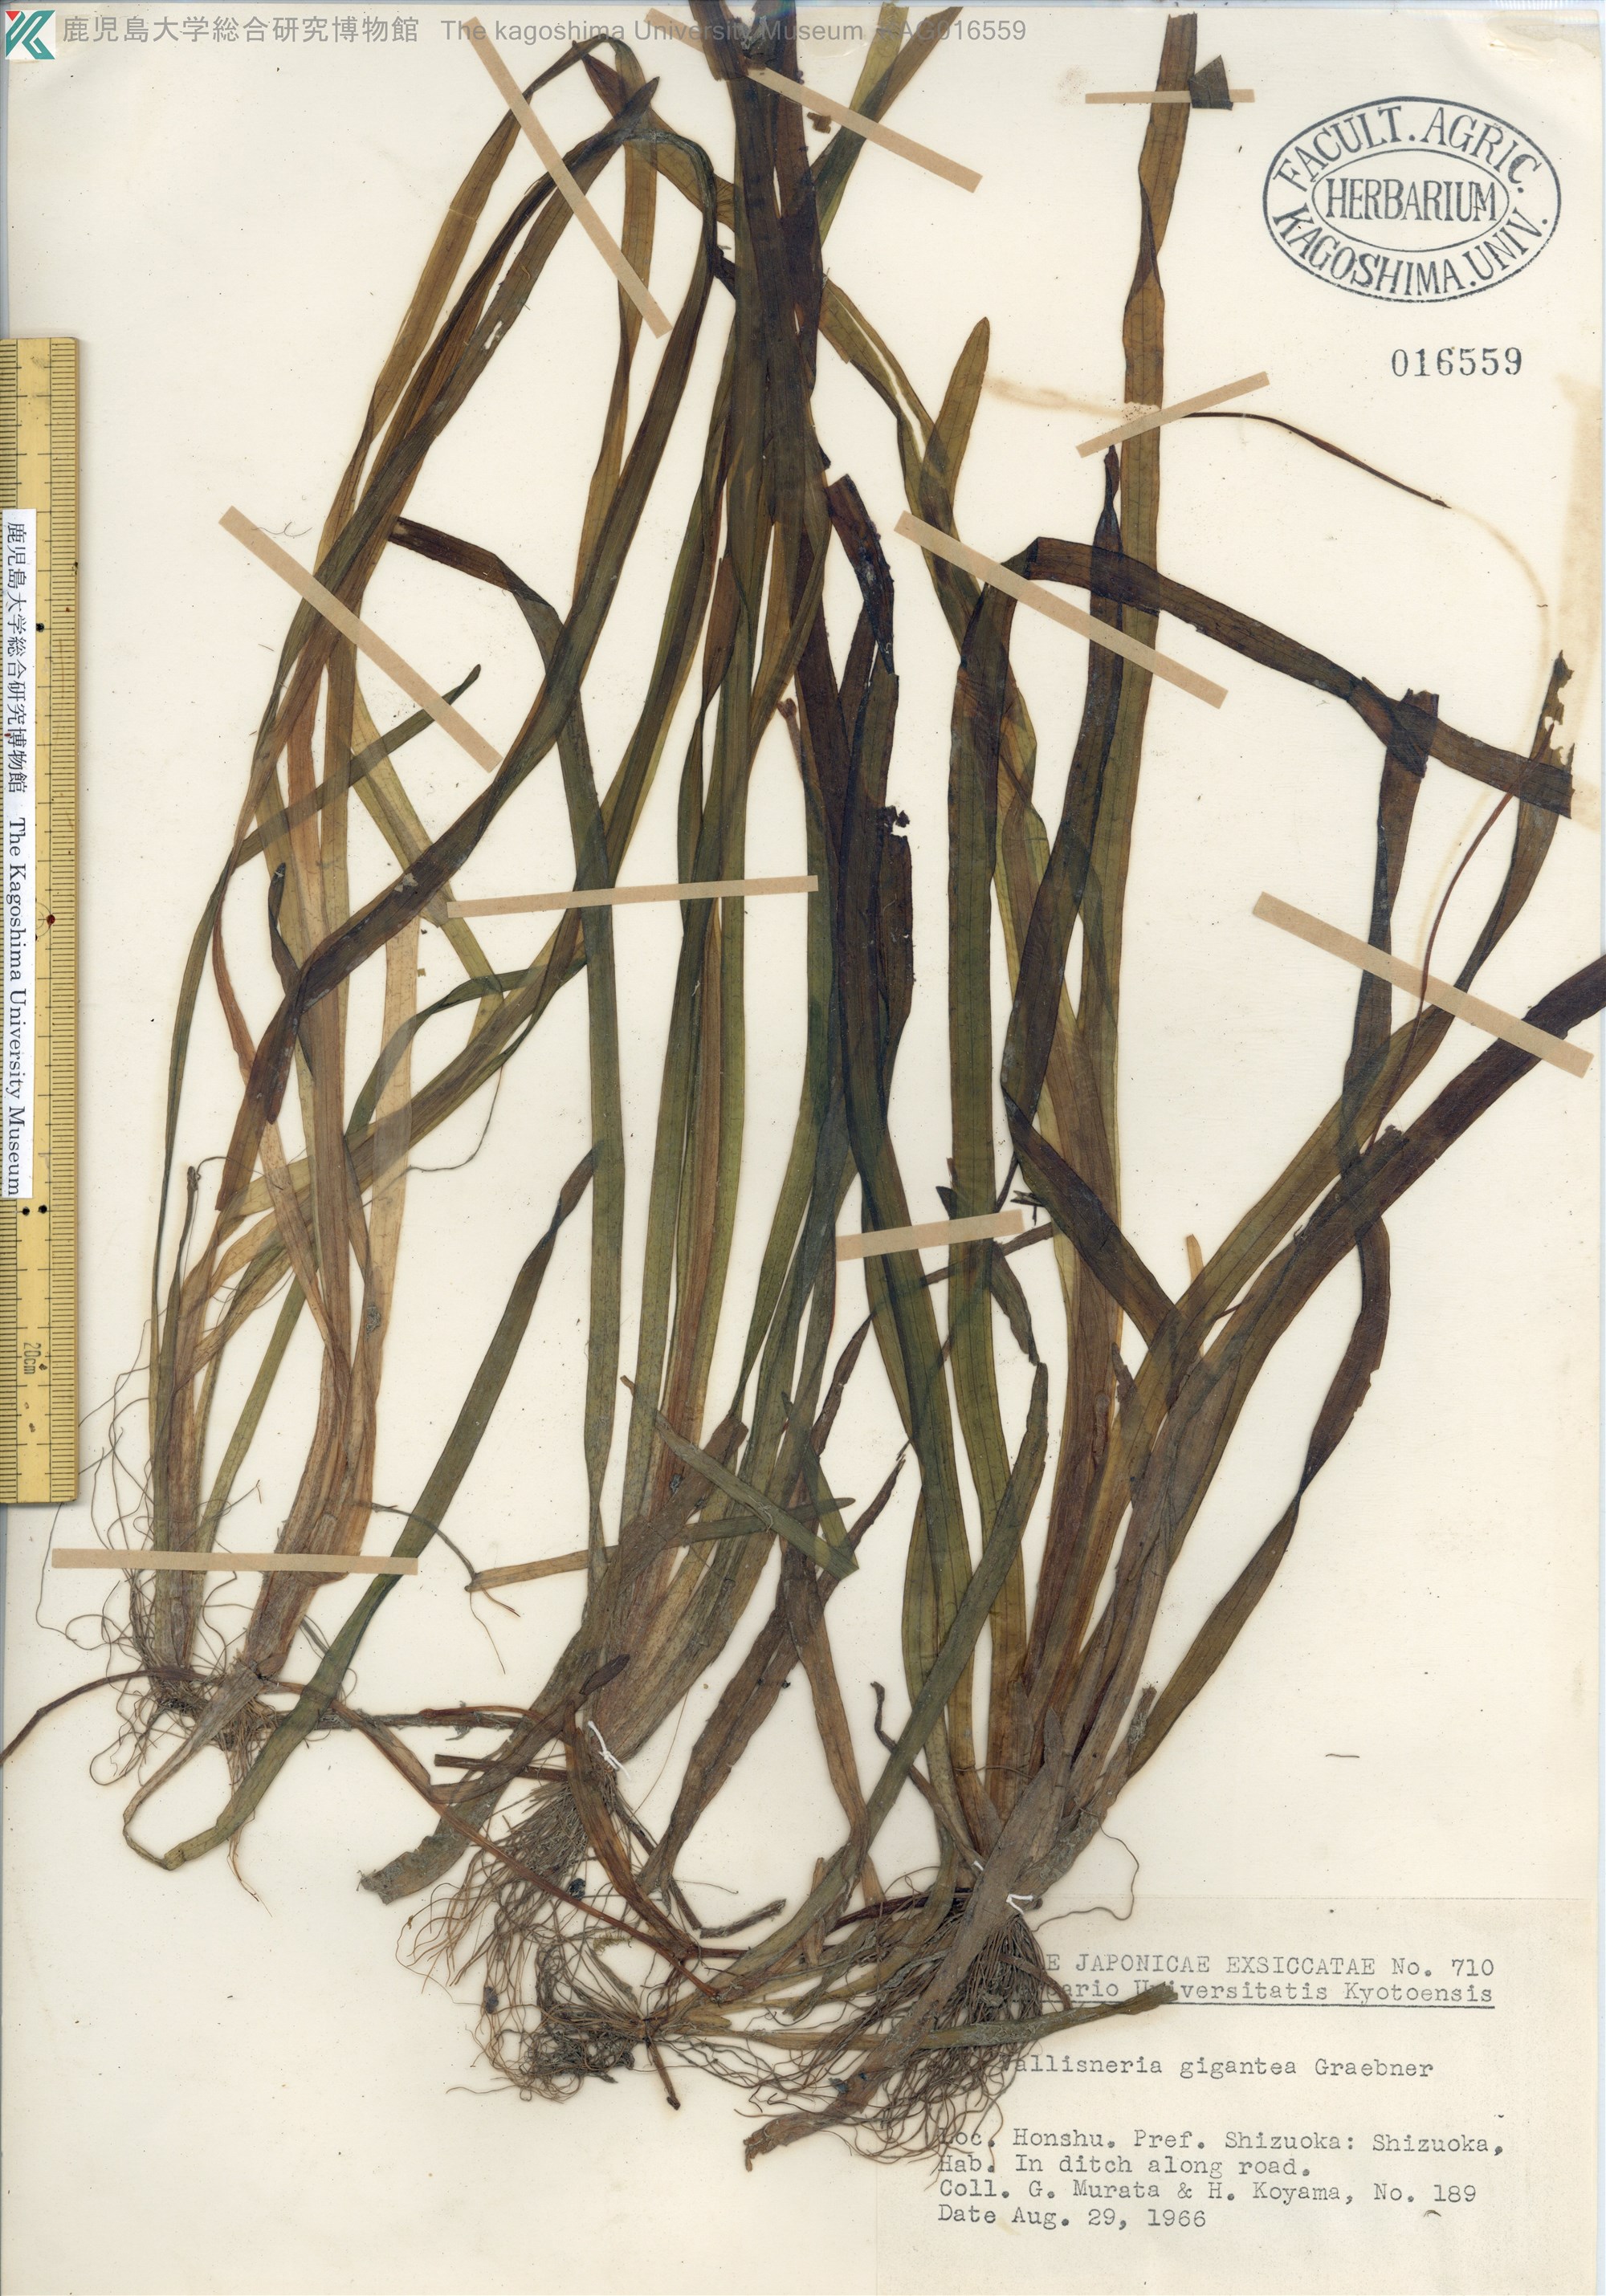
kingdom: Plantae
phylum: Tracheophyta
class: Liliopsida
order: Alismatales
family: Hydrocharitaceae
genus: Vallisneria
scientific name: Vallisneria natans
